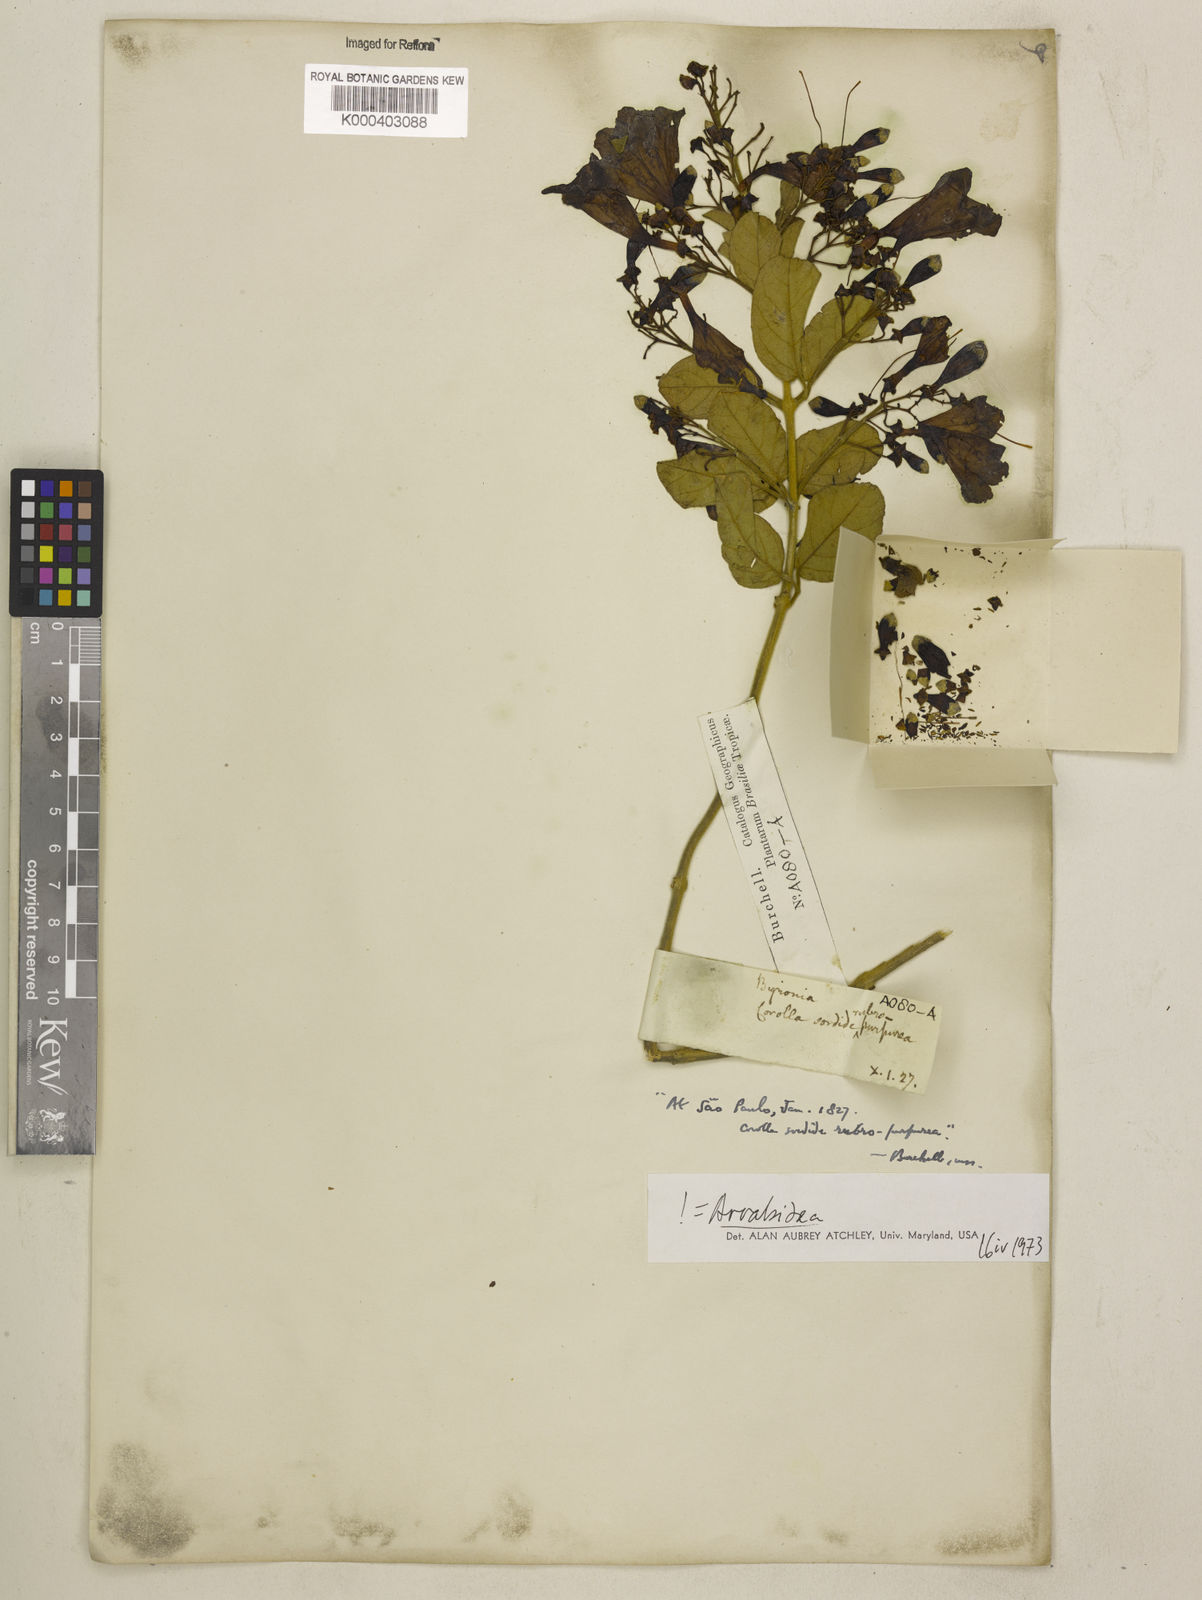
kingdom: Plantae
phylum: Tracheophyta
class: Magnoliopsida
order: Lamiales
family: Bignoniaceae
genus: Fridericia
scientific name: Fridericia samydoides
